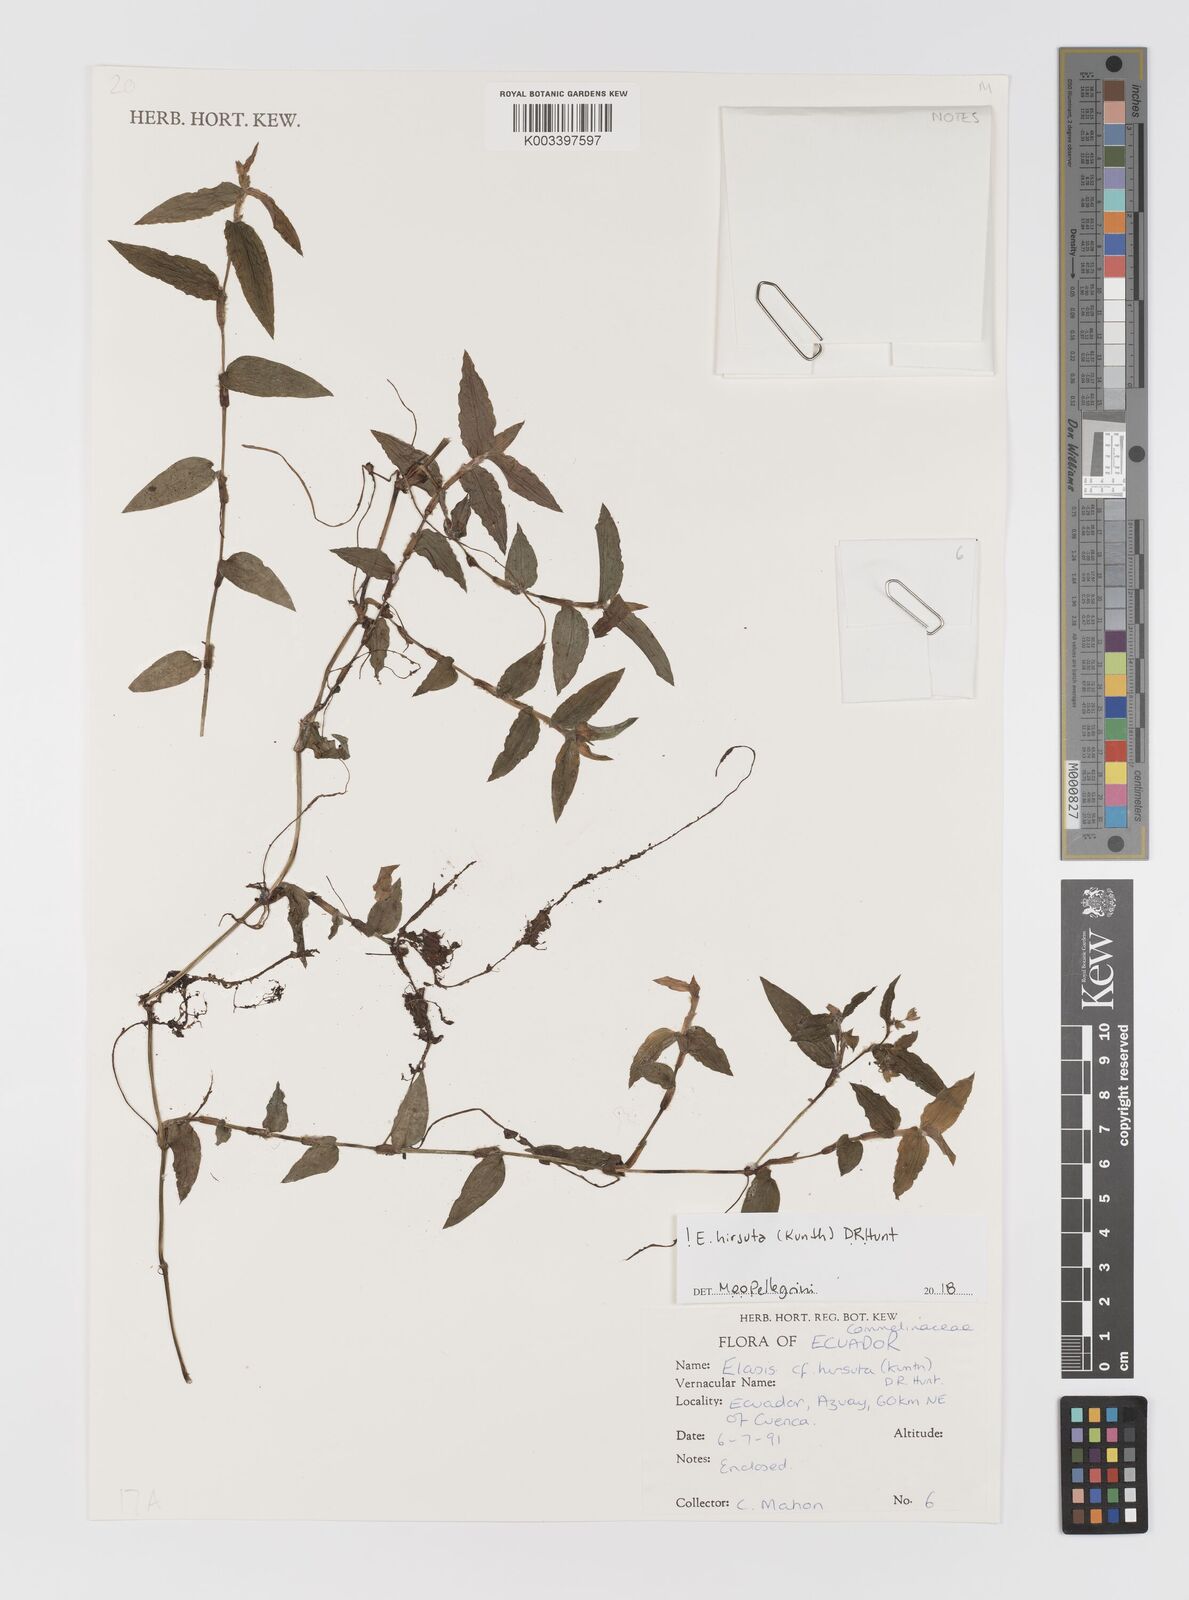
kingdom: Plantae
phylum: Tracheophyta
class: Liliopsida
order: Commelinales
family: Commelinaceae
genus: Elasis
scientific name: Elasis hirsuta
